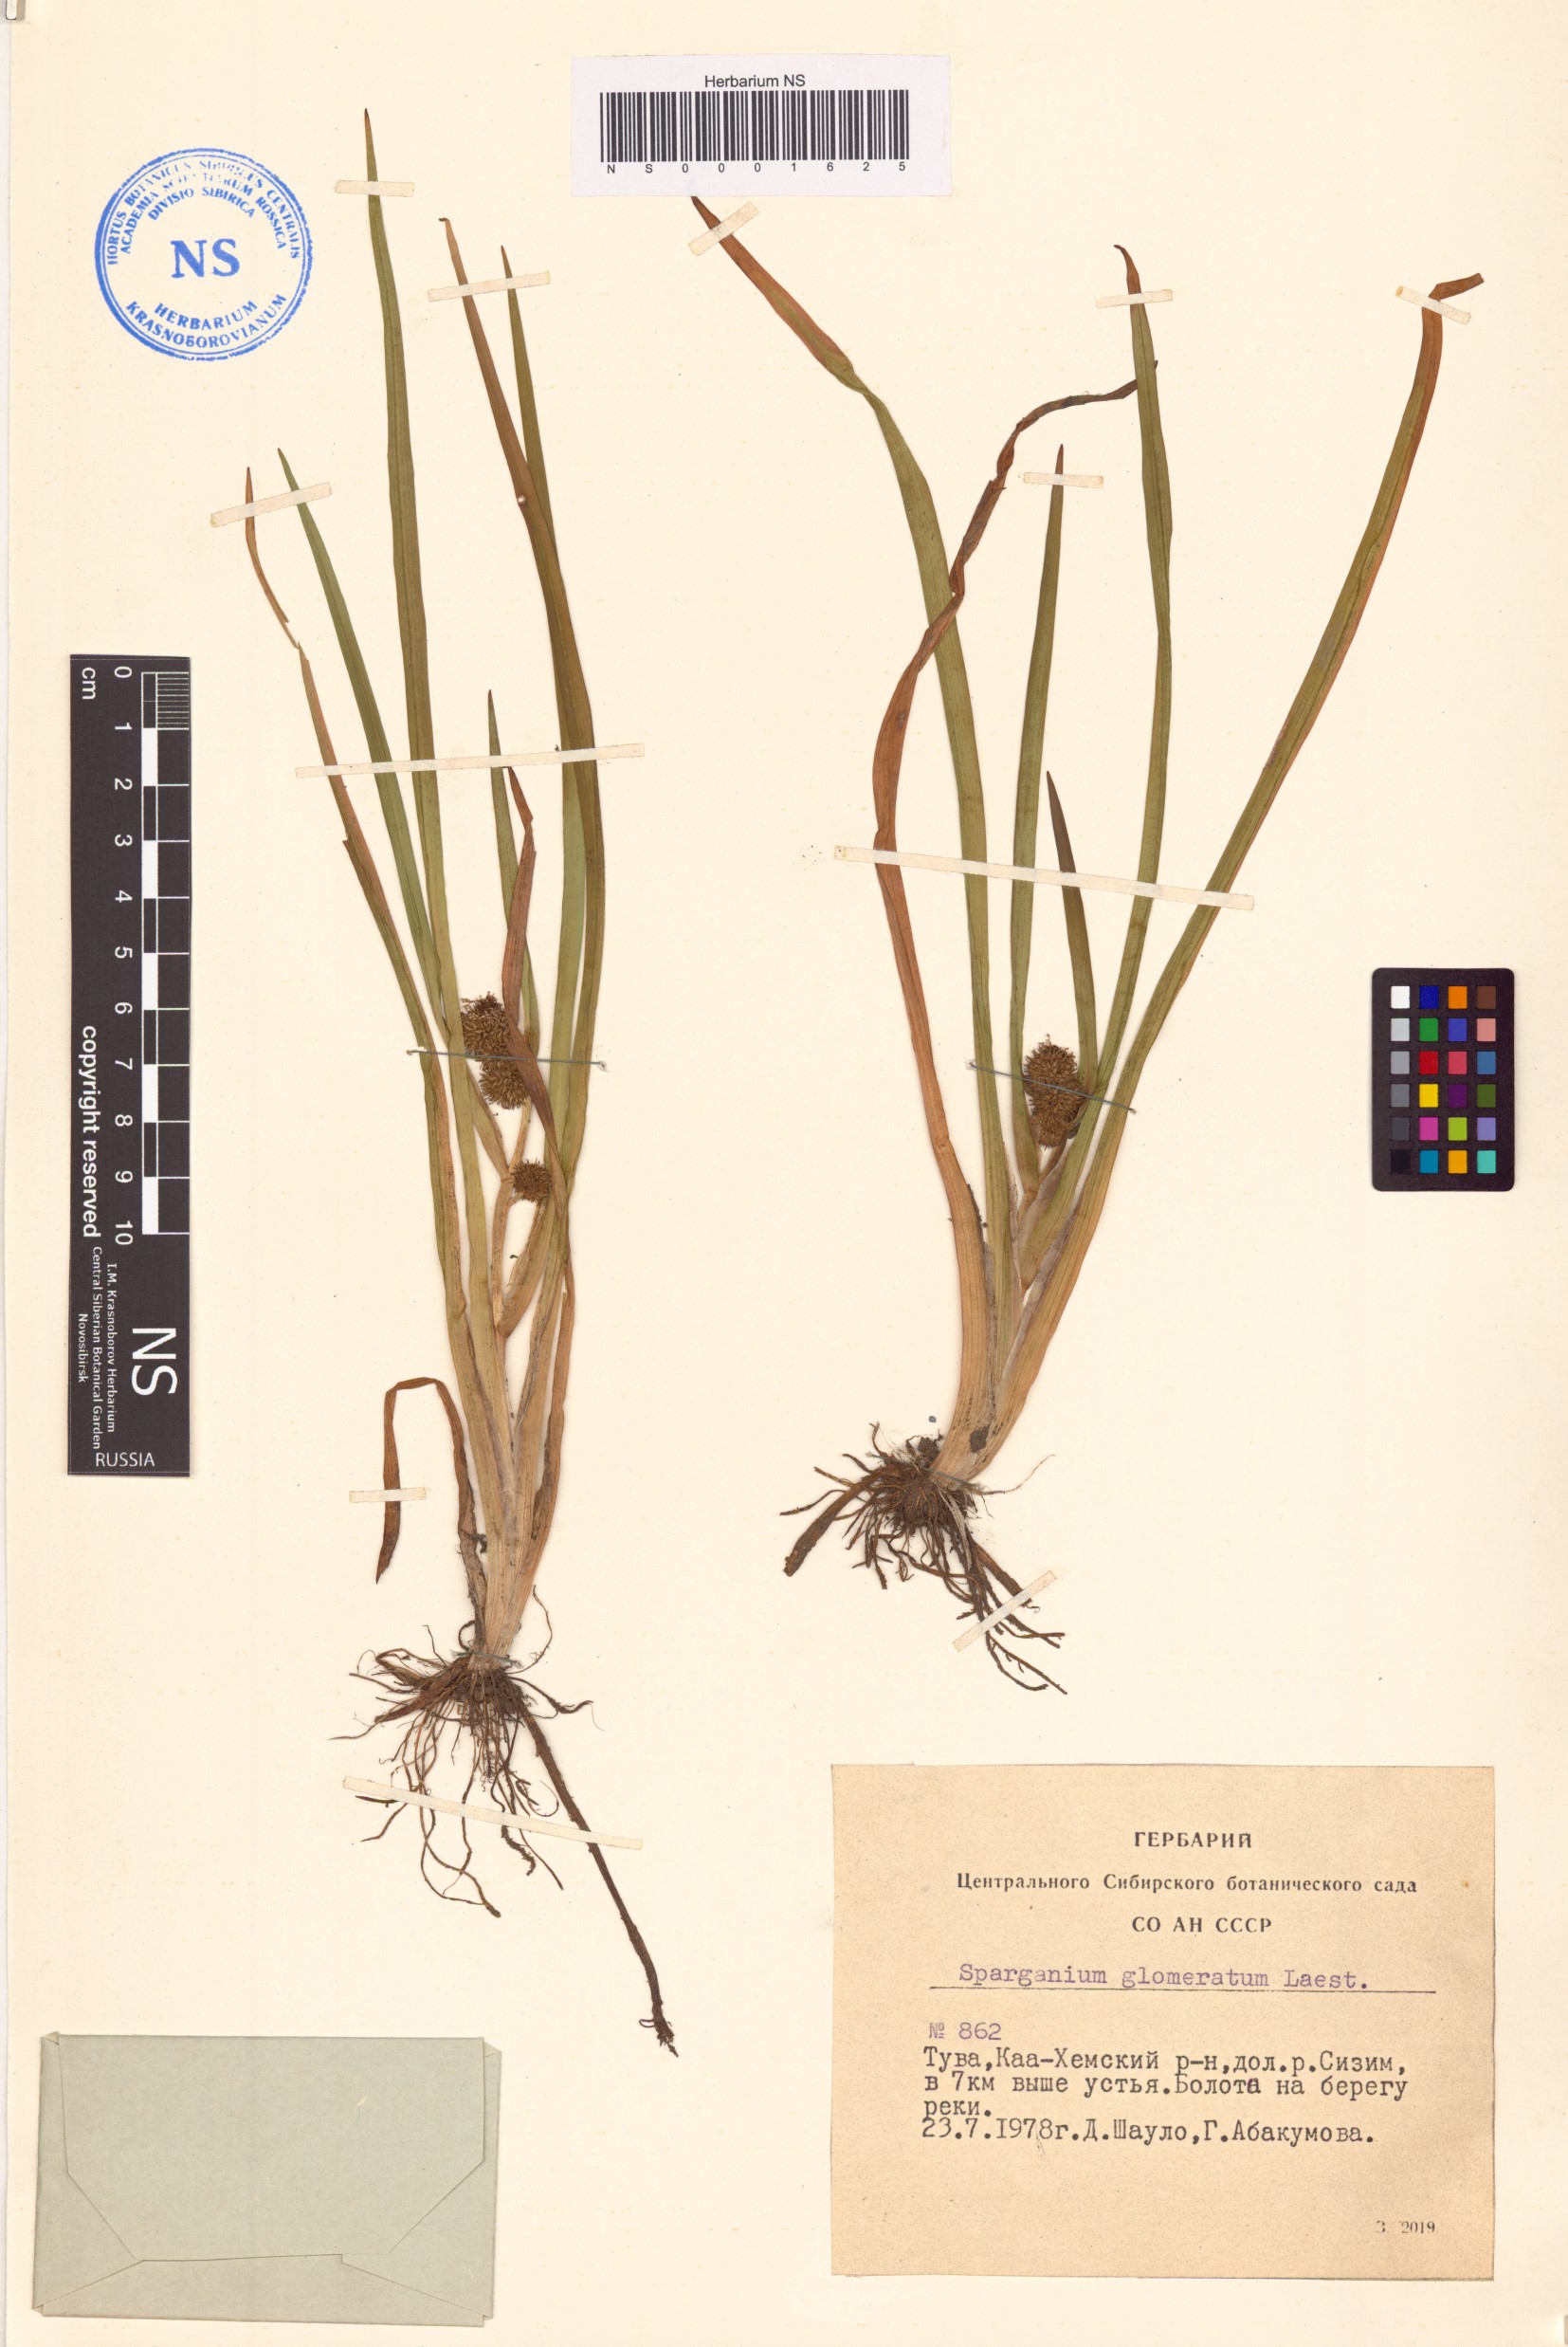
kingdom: Plantae
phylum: Tracheophyta
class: Liliopsida
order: Poales
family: Typhaceae
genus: Sparganium
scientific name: Sparganium glomeratum
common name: Clustered burreed
